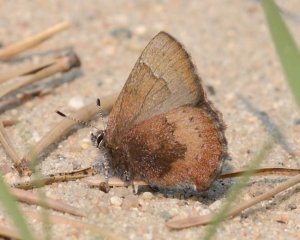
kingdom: Animalia
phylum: Arthropoda
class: Insecta
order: Lepidoptera
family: Lycaenidae
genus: Incisalia
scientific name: Incisalia irioides
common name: Brown Elfin
